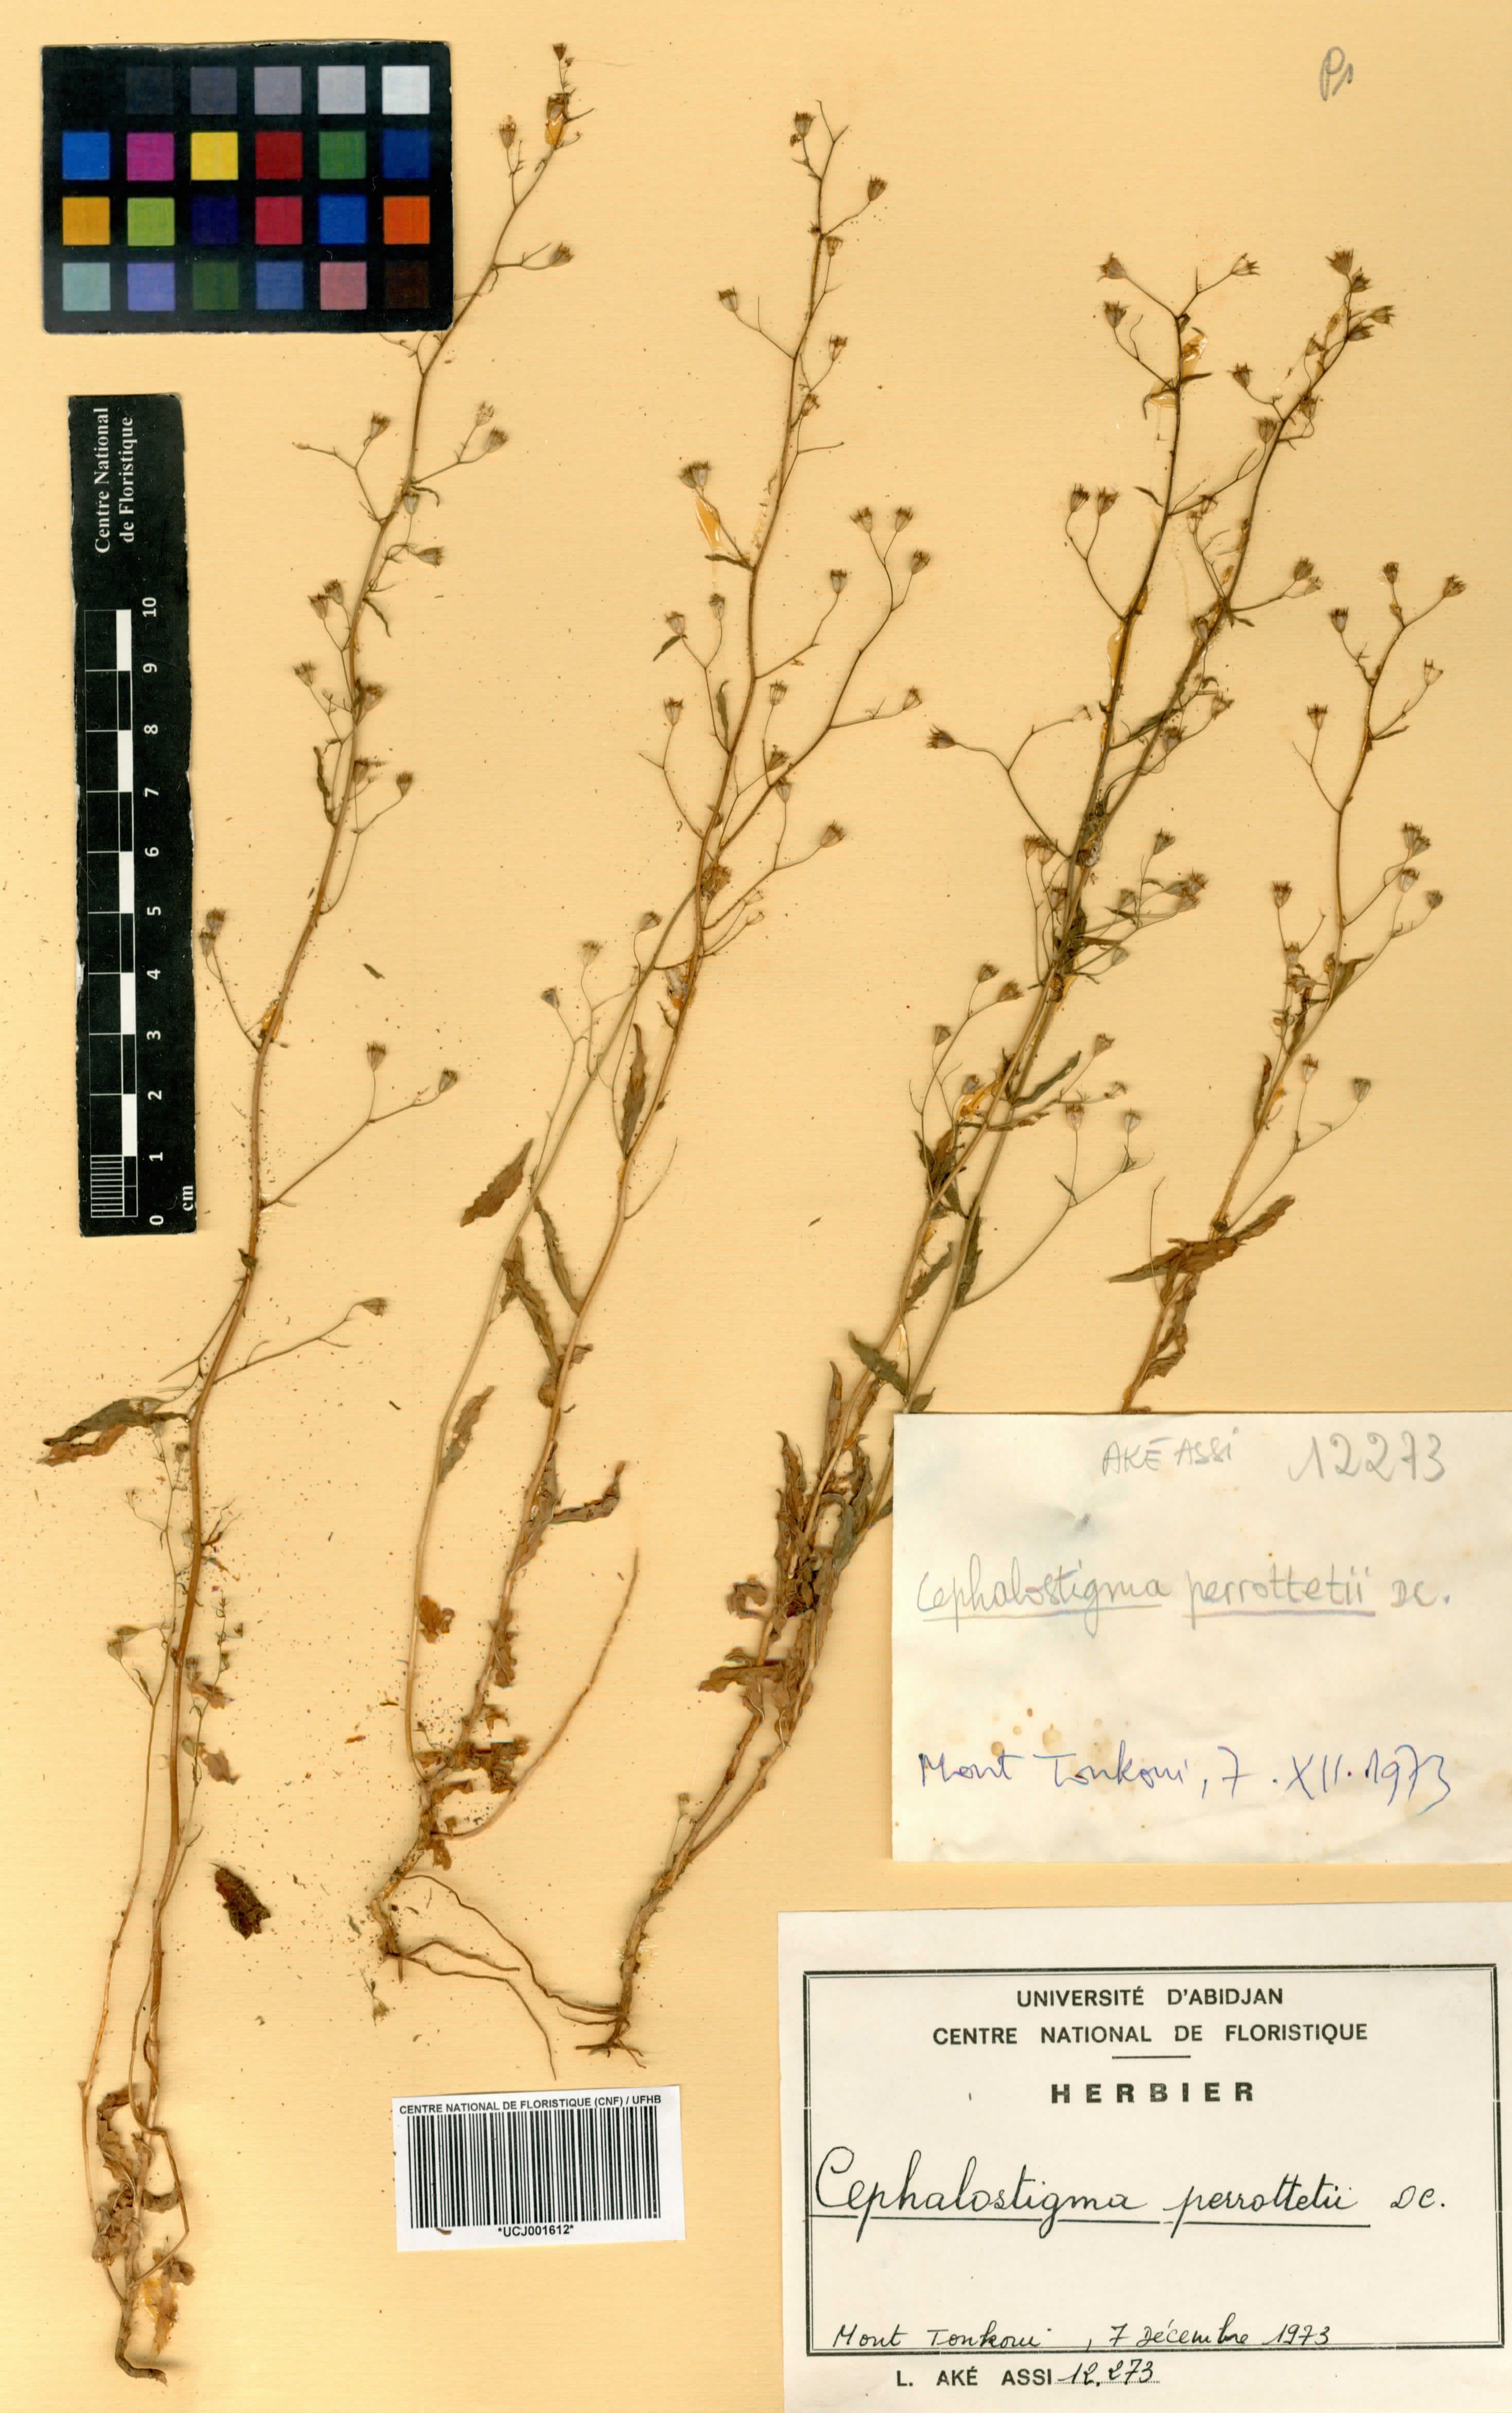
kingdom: Plantae
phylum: Tracheophyta
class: Magnoliopsida
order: Asterales
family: Campanulaceae
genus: Wahlenbergia
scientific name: Wahlenbergia perrottetii
